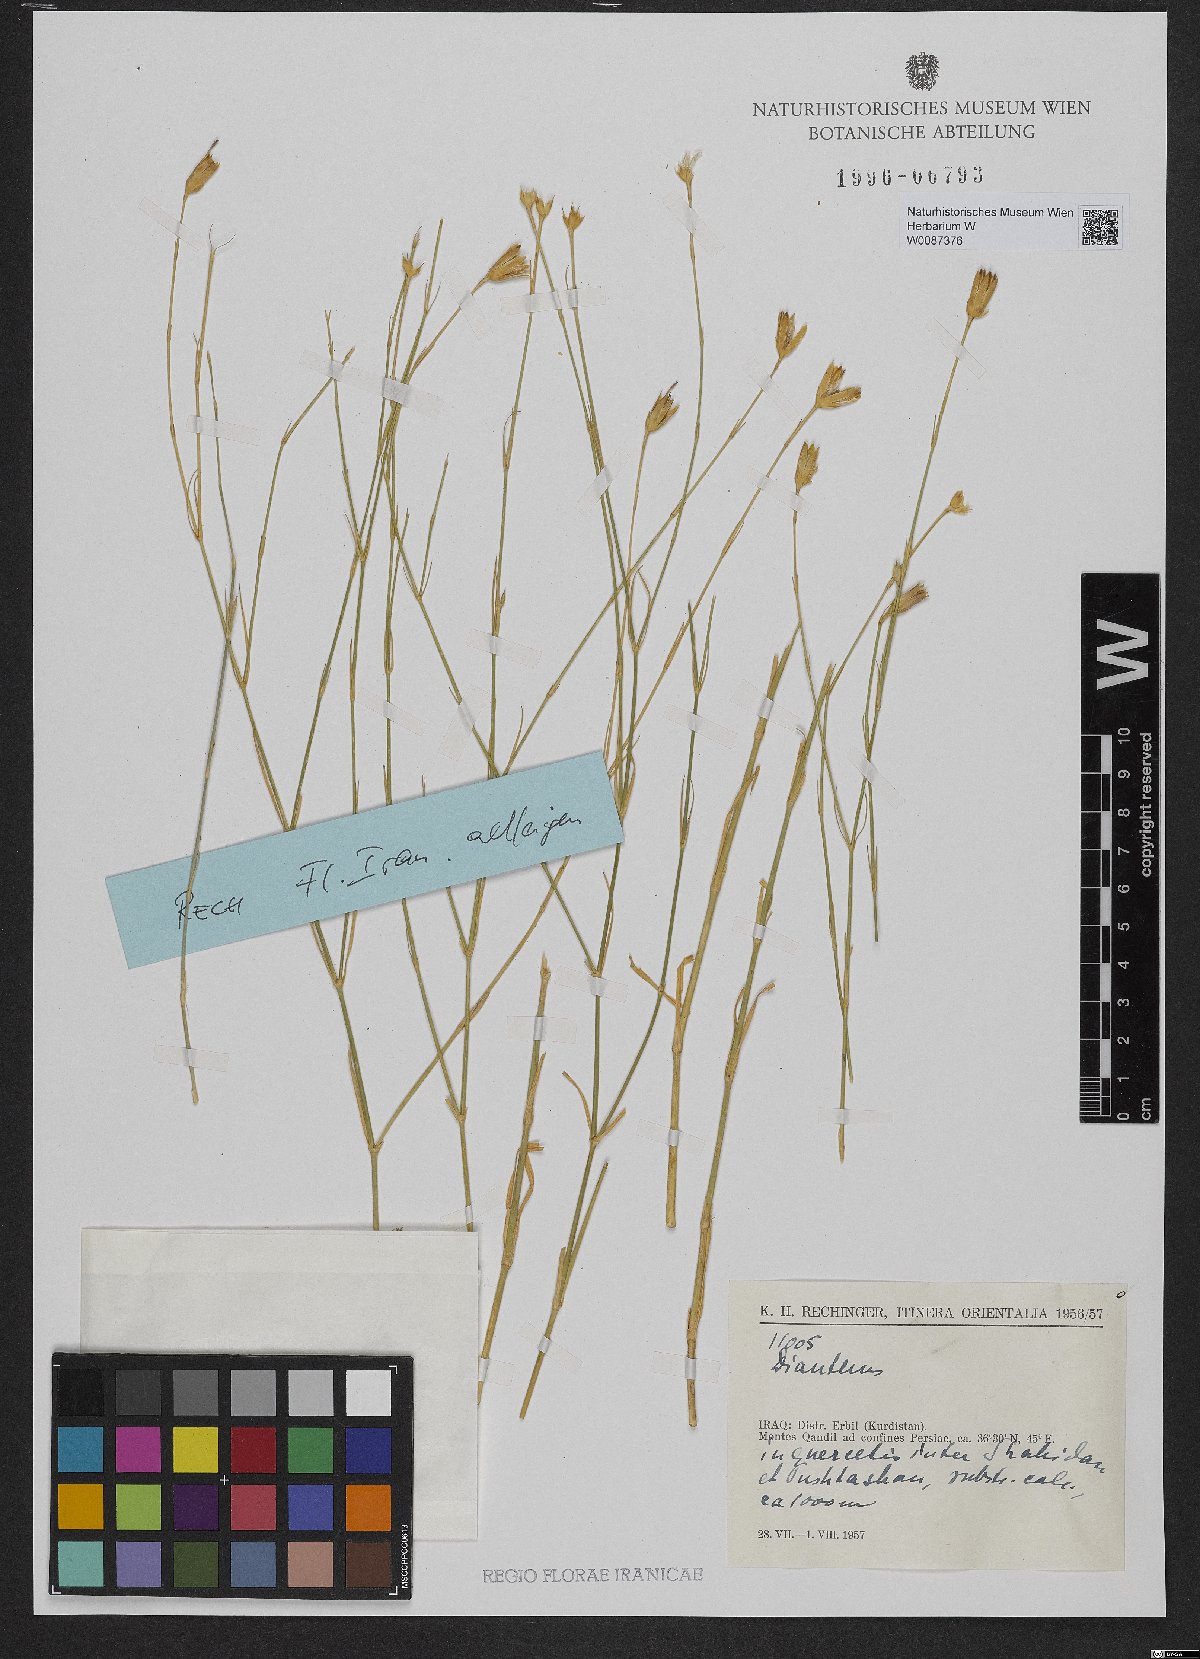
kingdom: Plantae
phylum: Tracheophyta
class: Magnoliopsida
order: Caryophyllales
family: Caryophyllaceae
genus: Dianthus
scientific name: Dianthus
